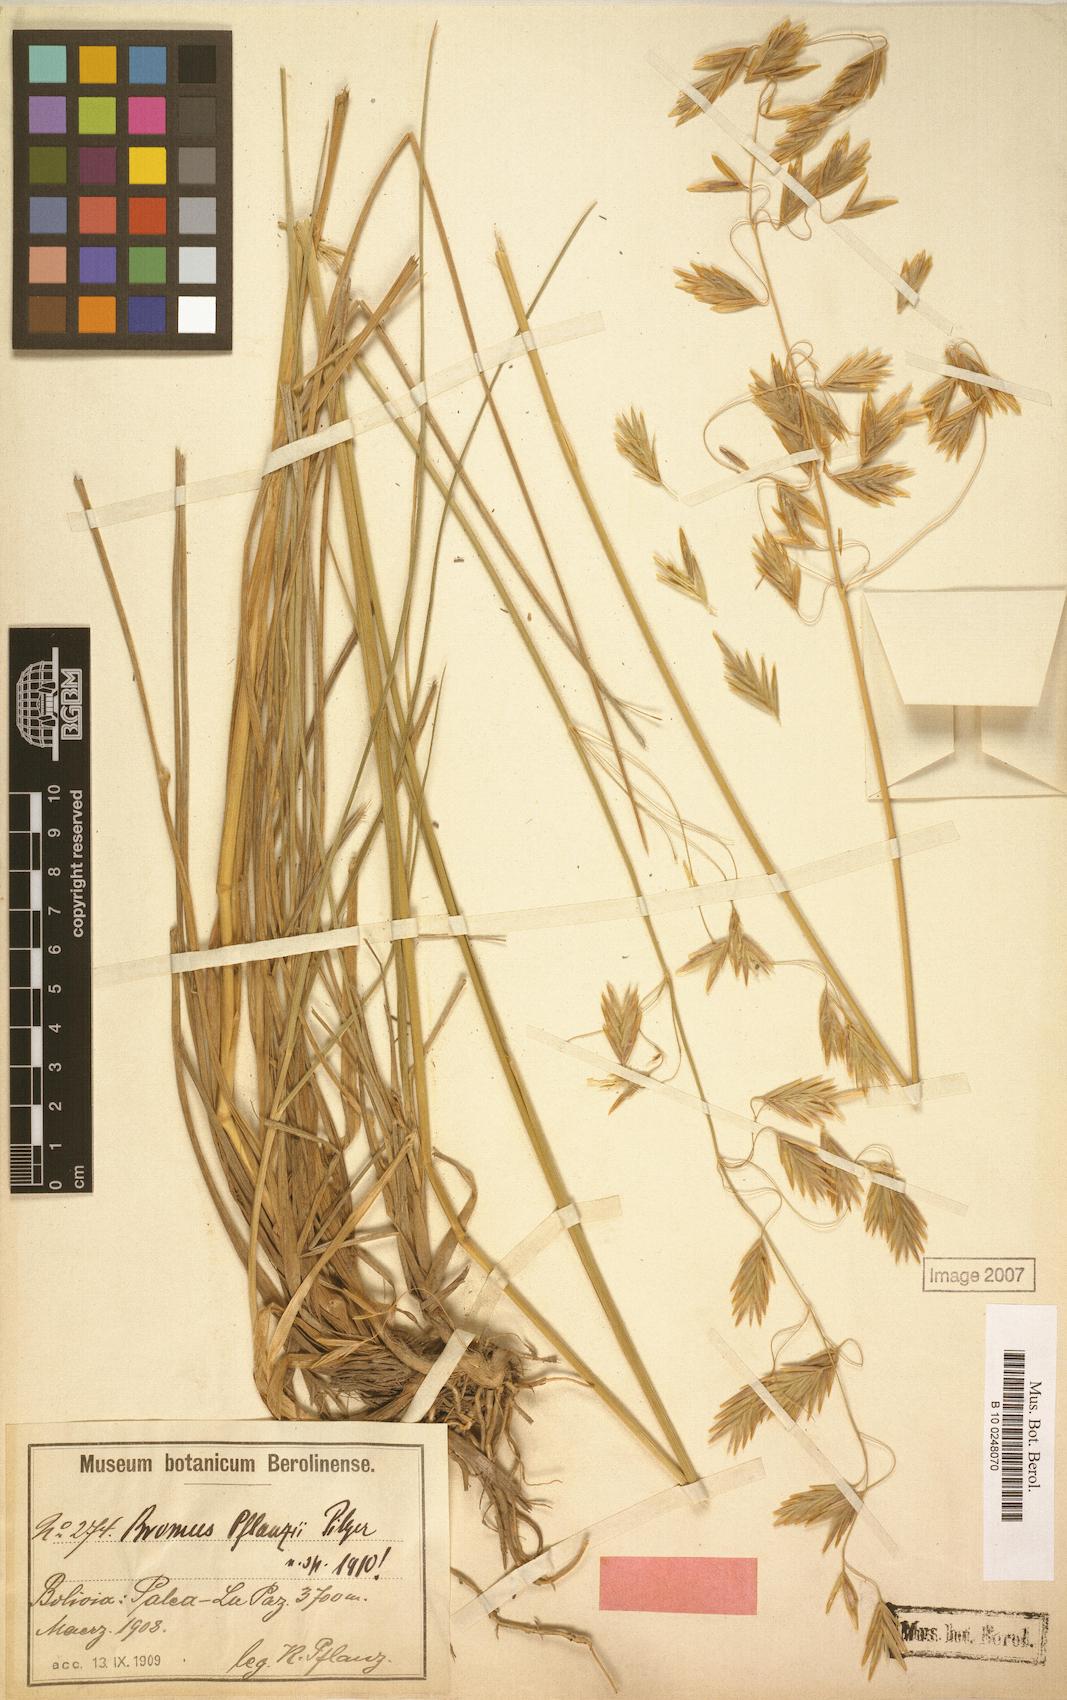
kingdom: Plantae
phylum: Tracheophyta
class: Liliopsida
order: Poales
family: Poaceae
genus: Bromus
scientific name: Bromus lanatus
